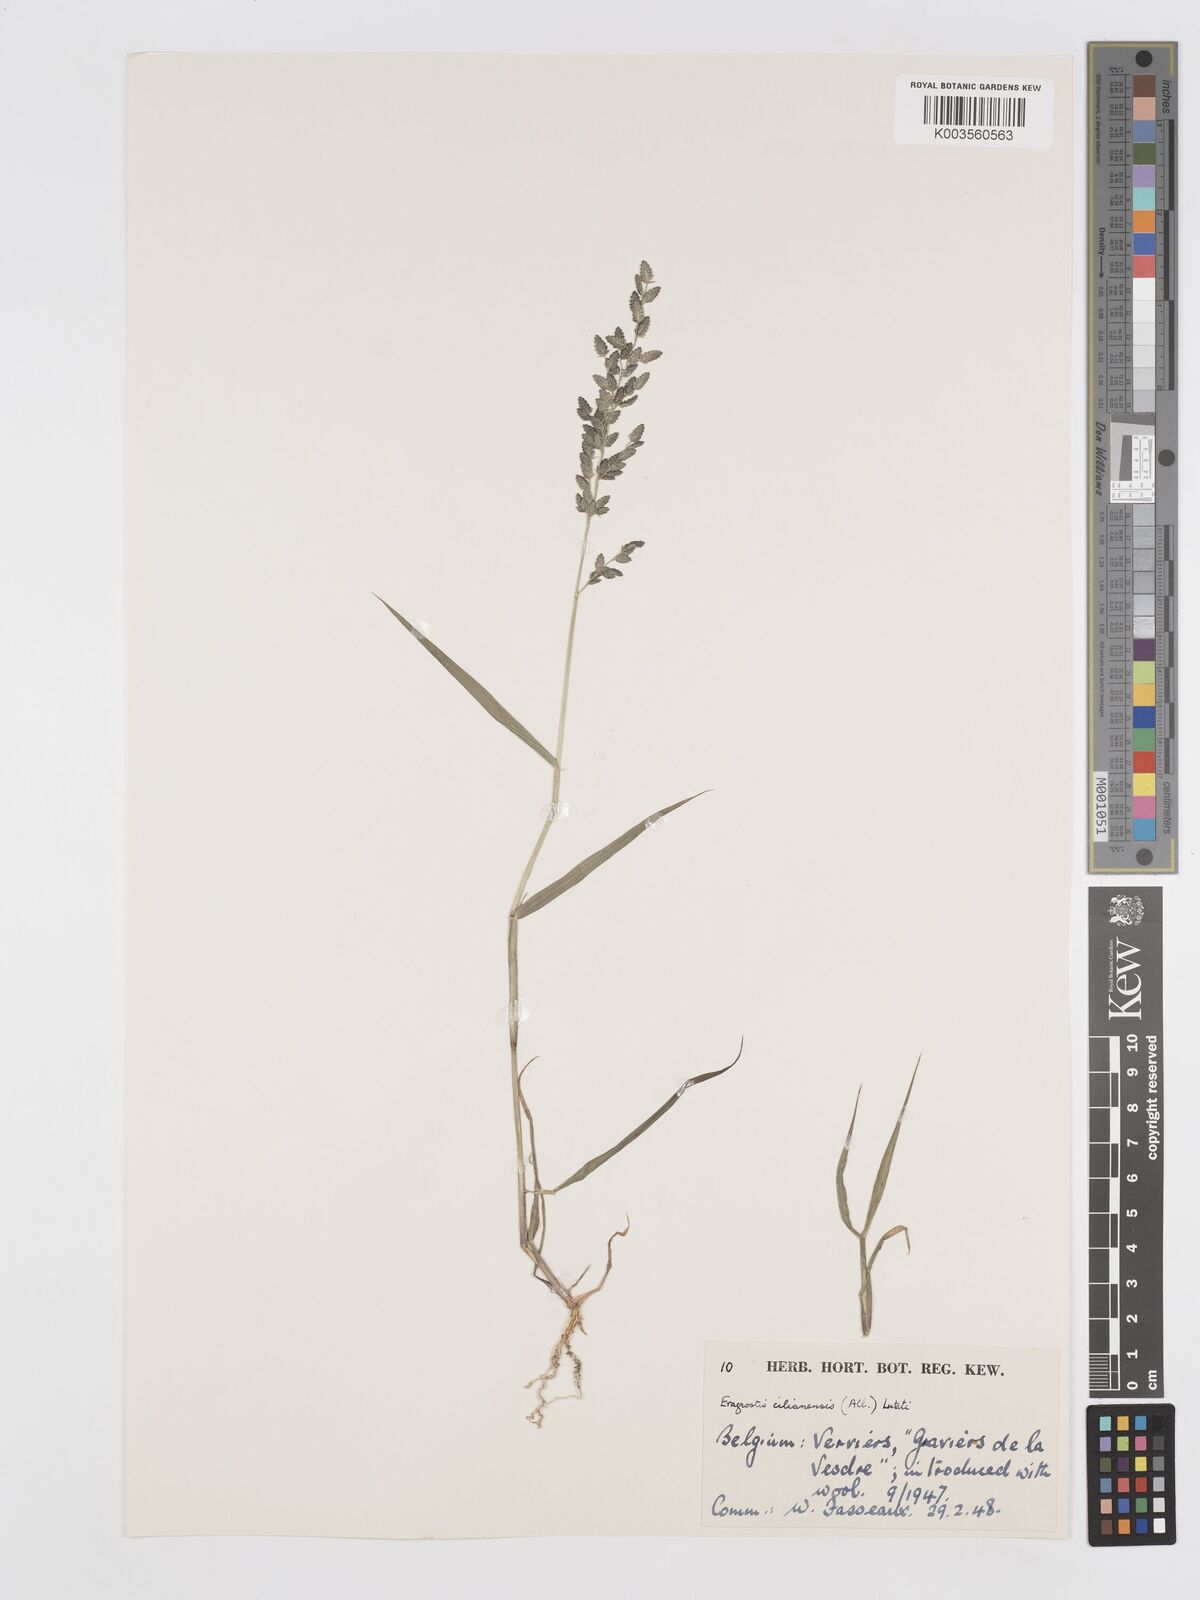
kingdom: Plantae
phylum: Tracheophyta
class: Liliopsida
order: Poales
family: Poaceae
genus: Eragrostis
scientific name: Eragrostis cilianensis
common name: Stinkgrass
